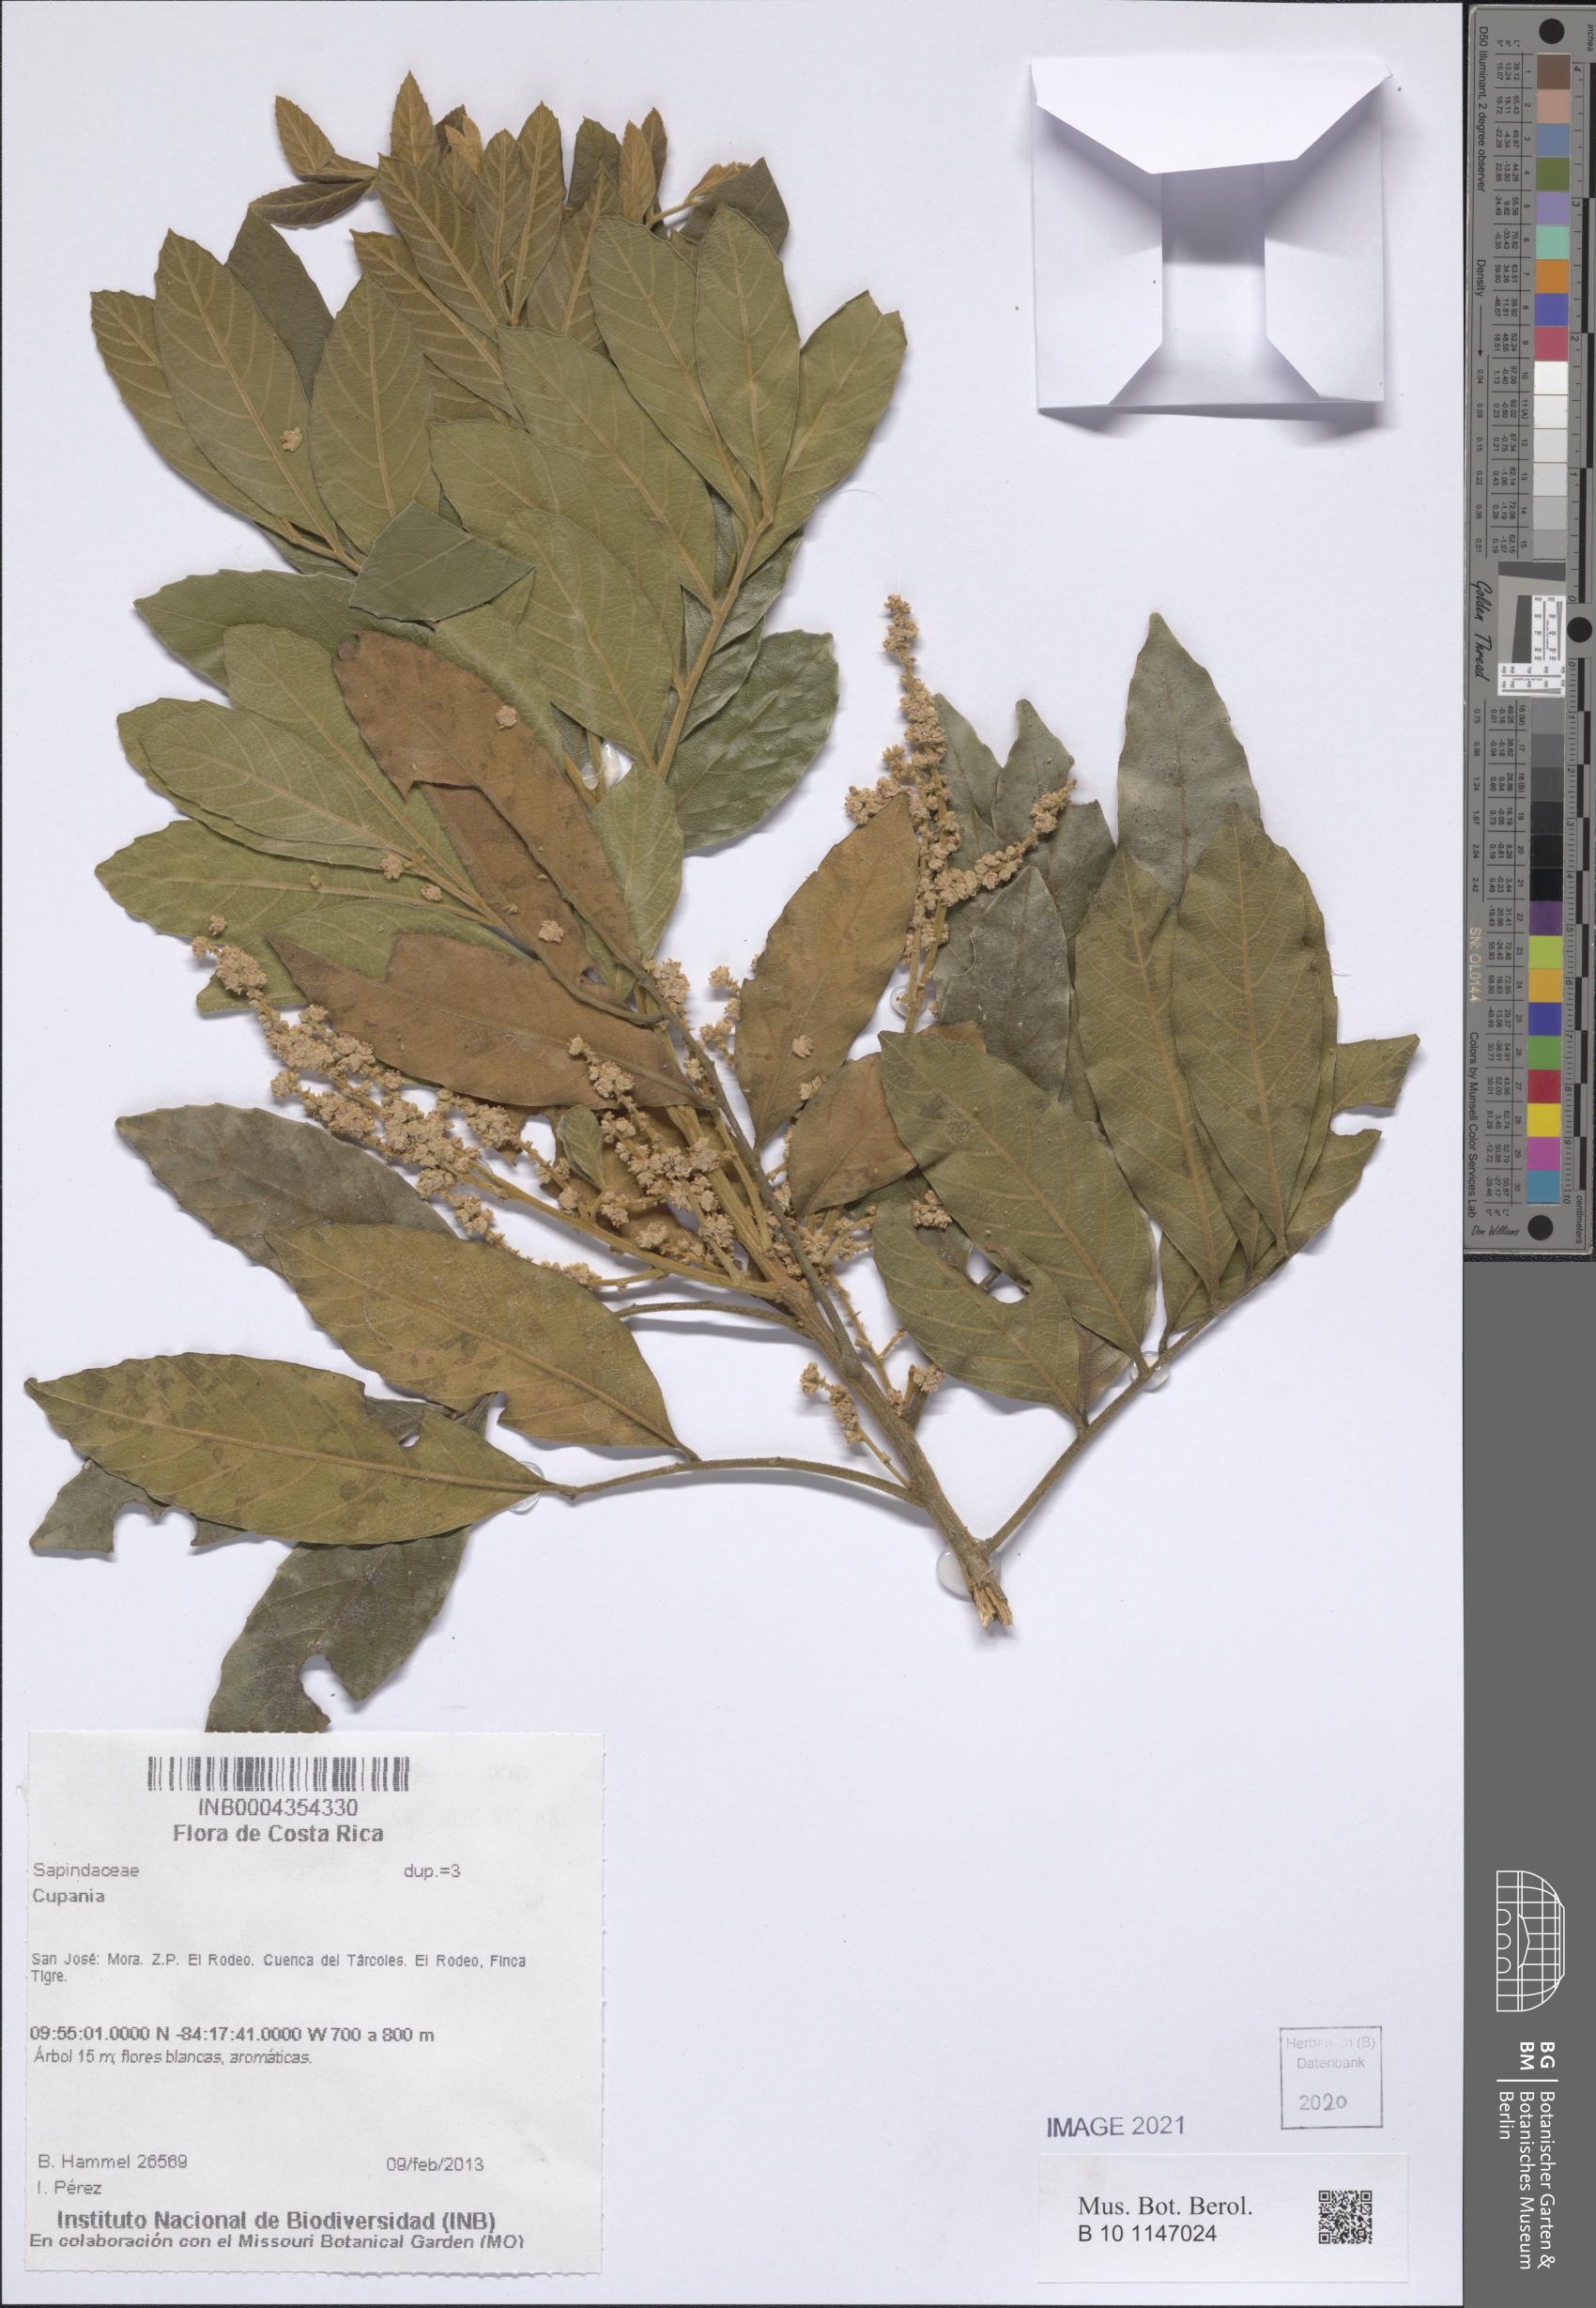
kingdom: Plantae
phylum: Tracheophyta
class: Magnoliopsida
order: Sapindales
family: Sapindaceae
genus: Cupania
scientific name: Cupania
